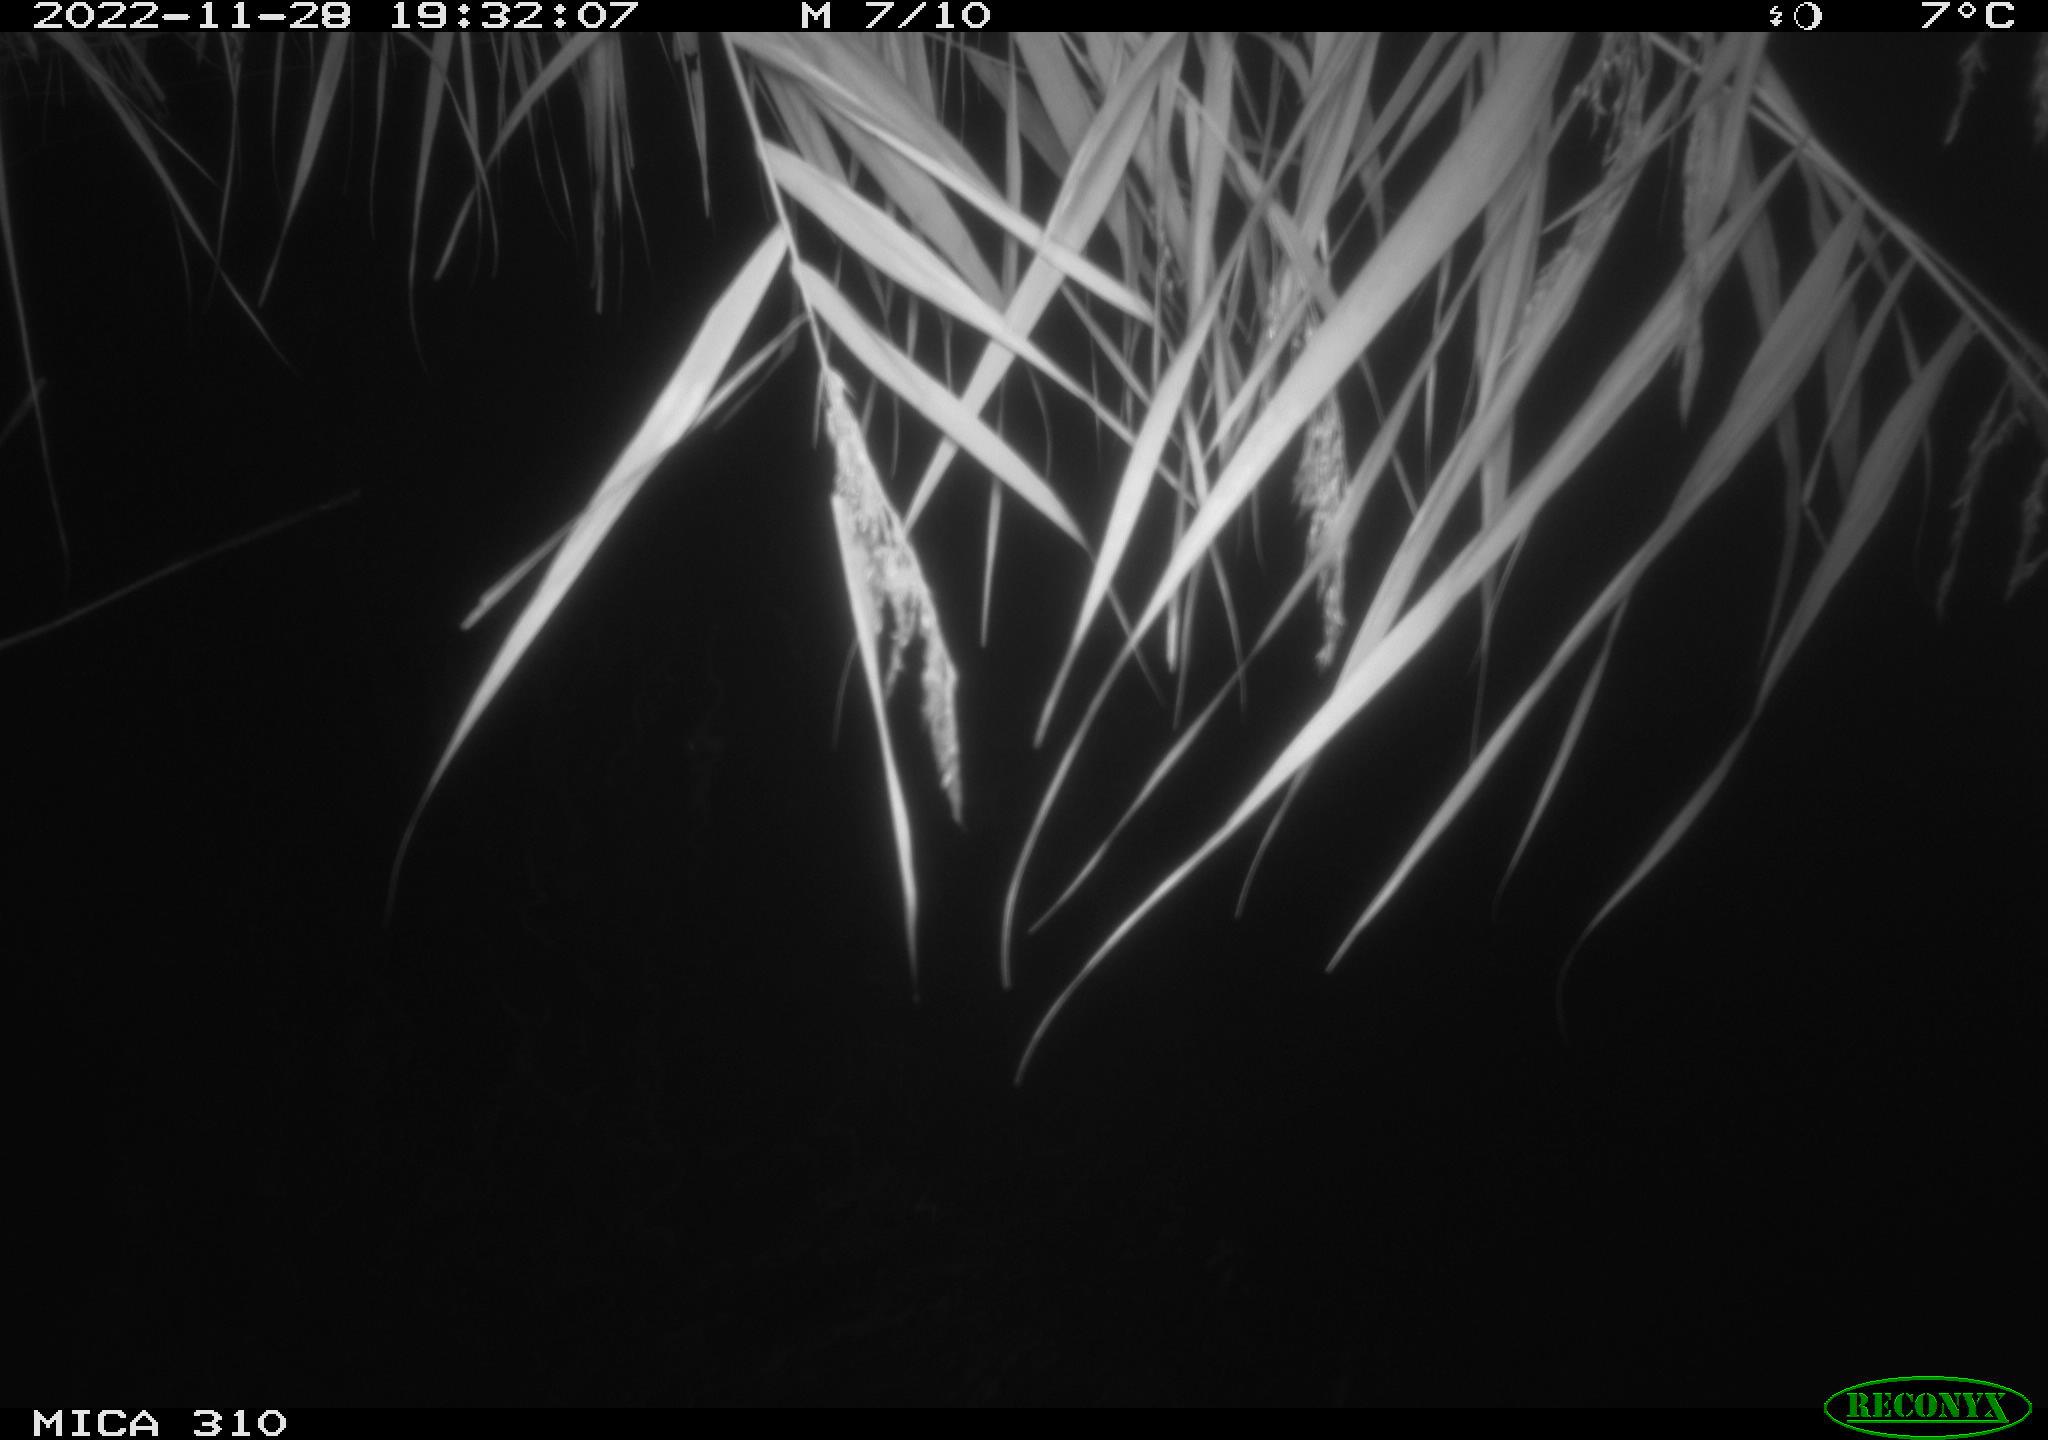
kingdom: Animalia
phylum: Chordata
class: Mammalia
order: Rodentia
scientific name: Rodentia
